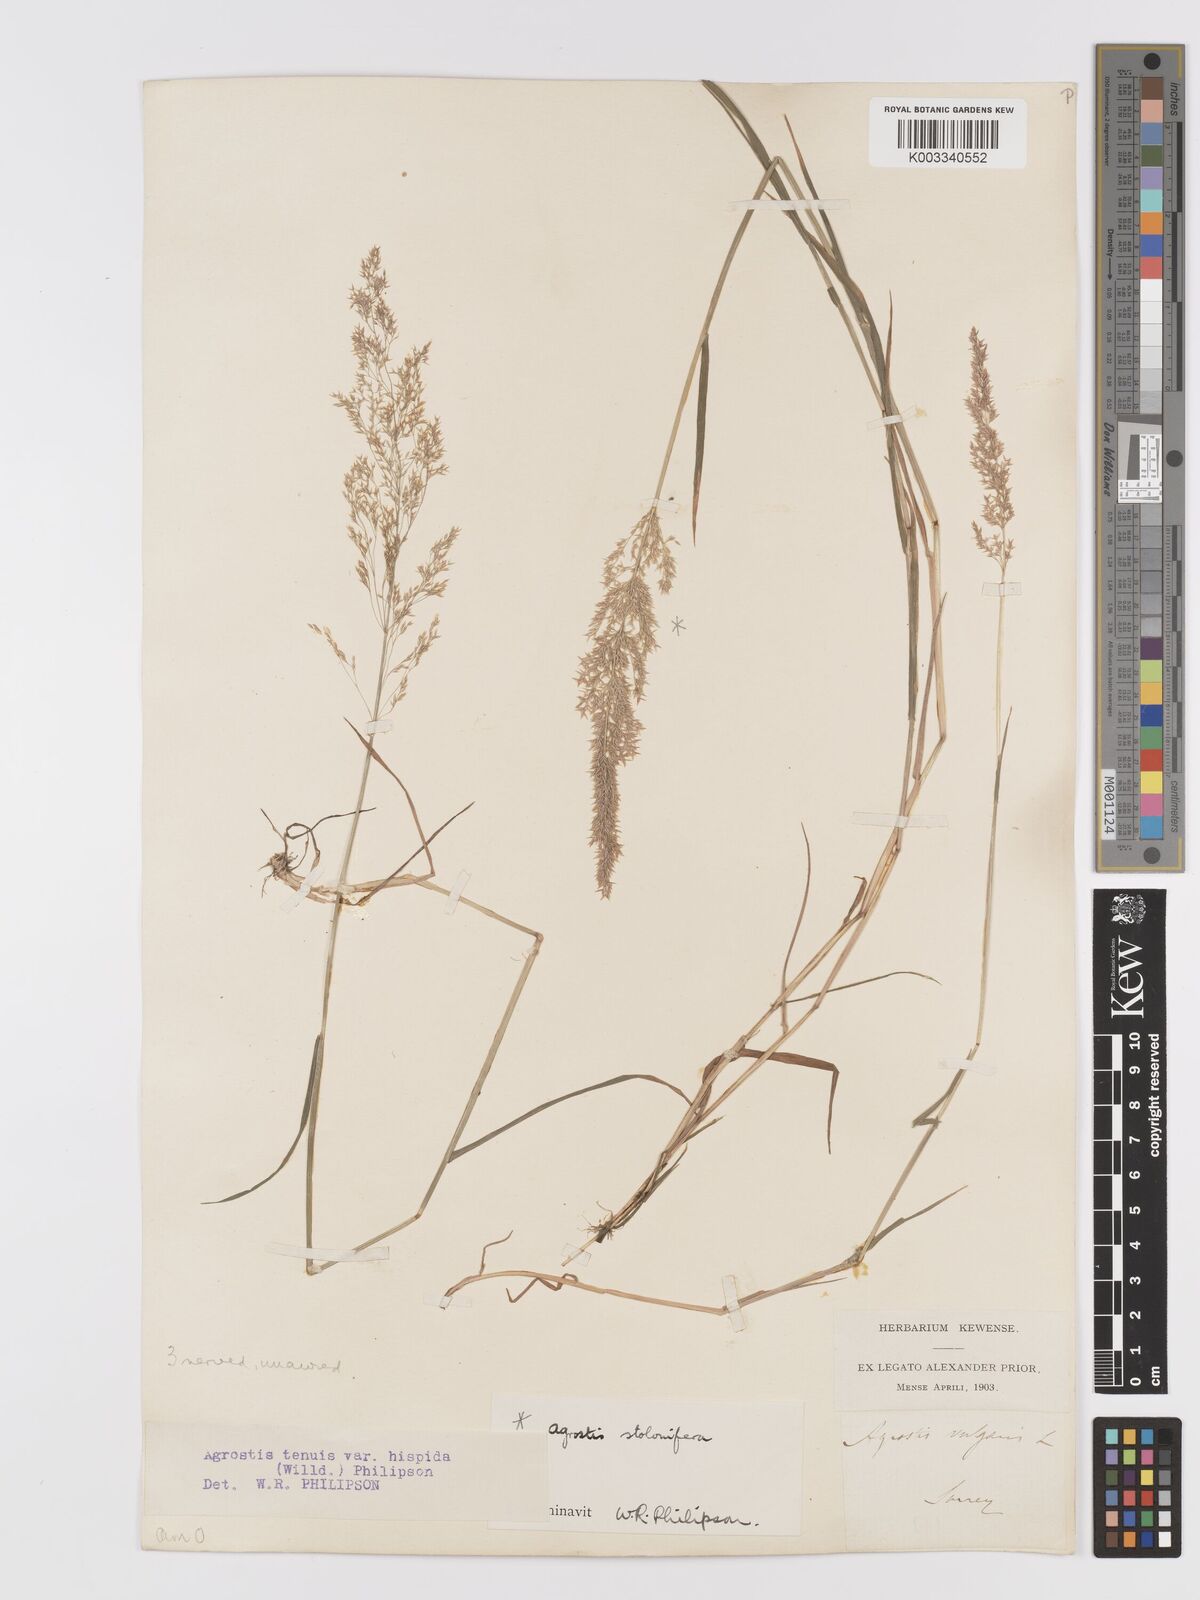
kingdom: Plantae
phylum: Tracheophyta
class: Liliopsida
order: Poales
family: Poaceae
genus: Agrostis
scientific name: Agrostis capillaris
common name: Colonial bentgrass
